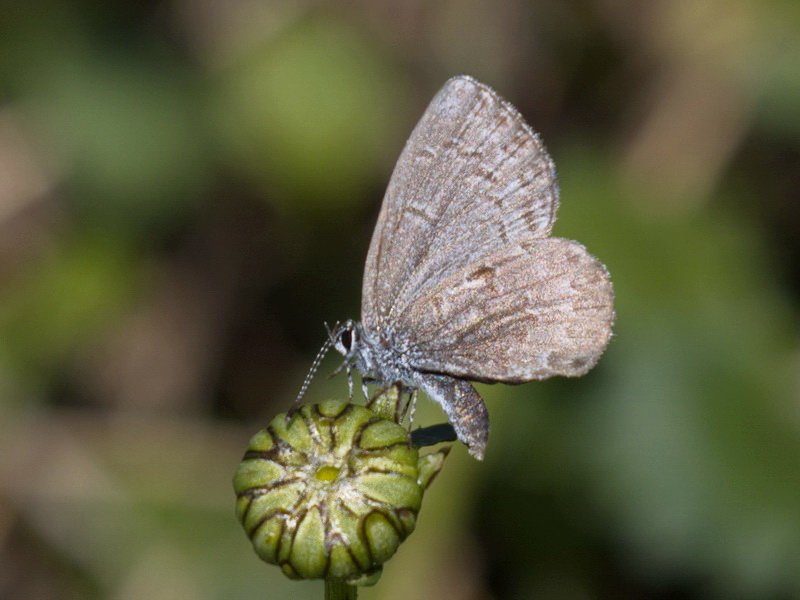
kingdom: Animalia
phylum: Arthropoda
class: Insecta
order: Lepidoptera
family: Lycaenidae
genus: Celastrina
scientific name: Celastrina lucia
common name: Northern Spring Azure
